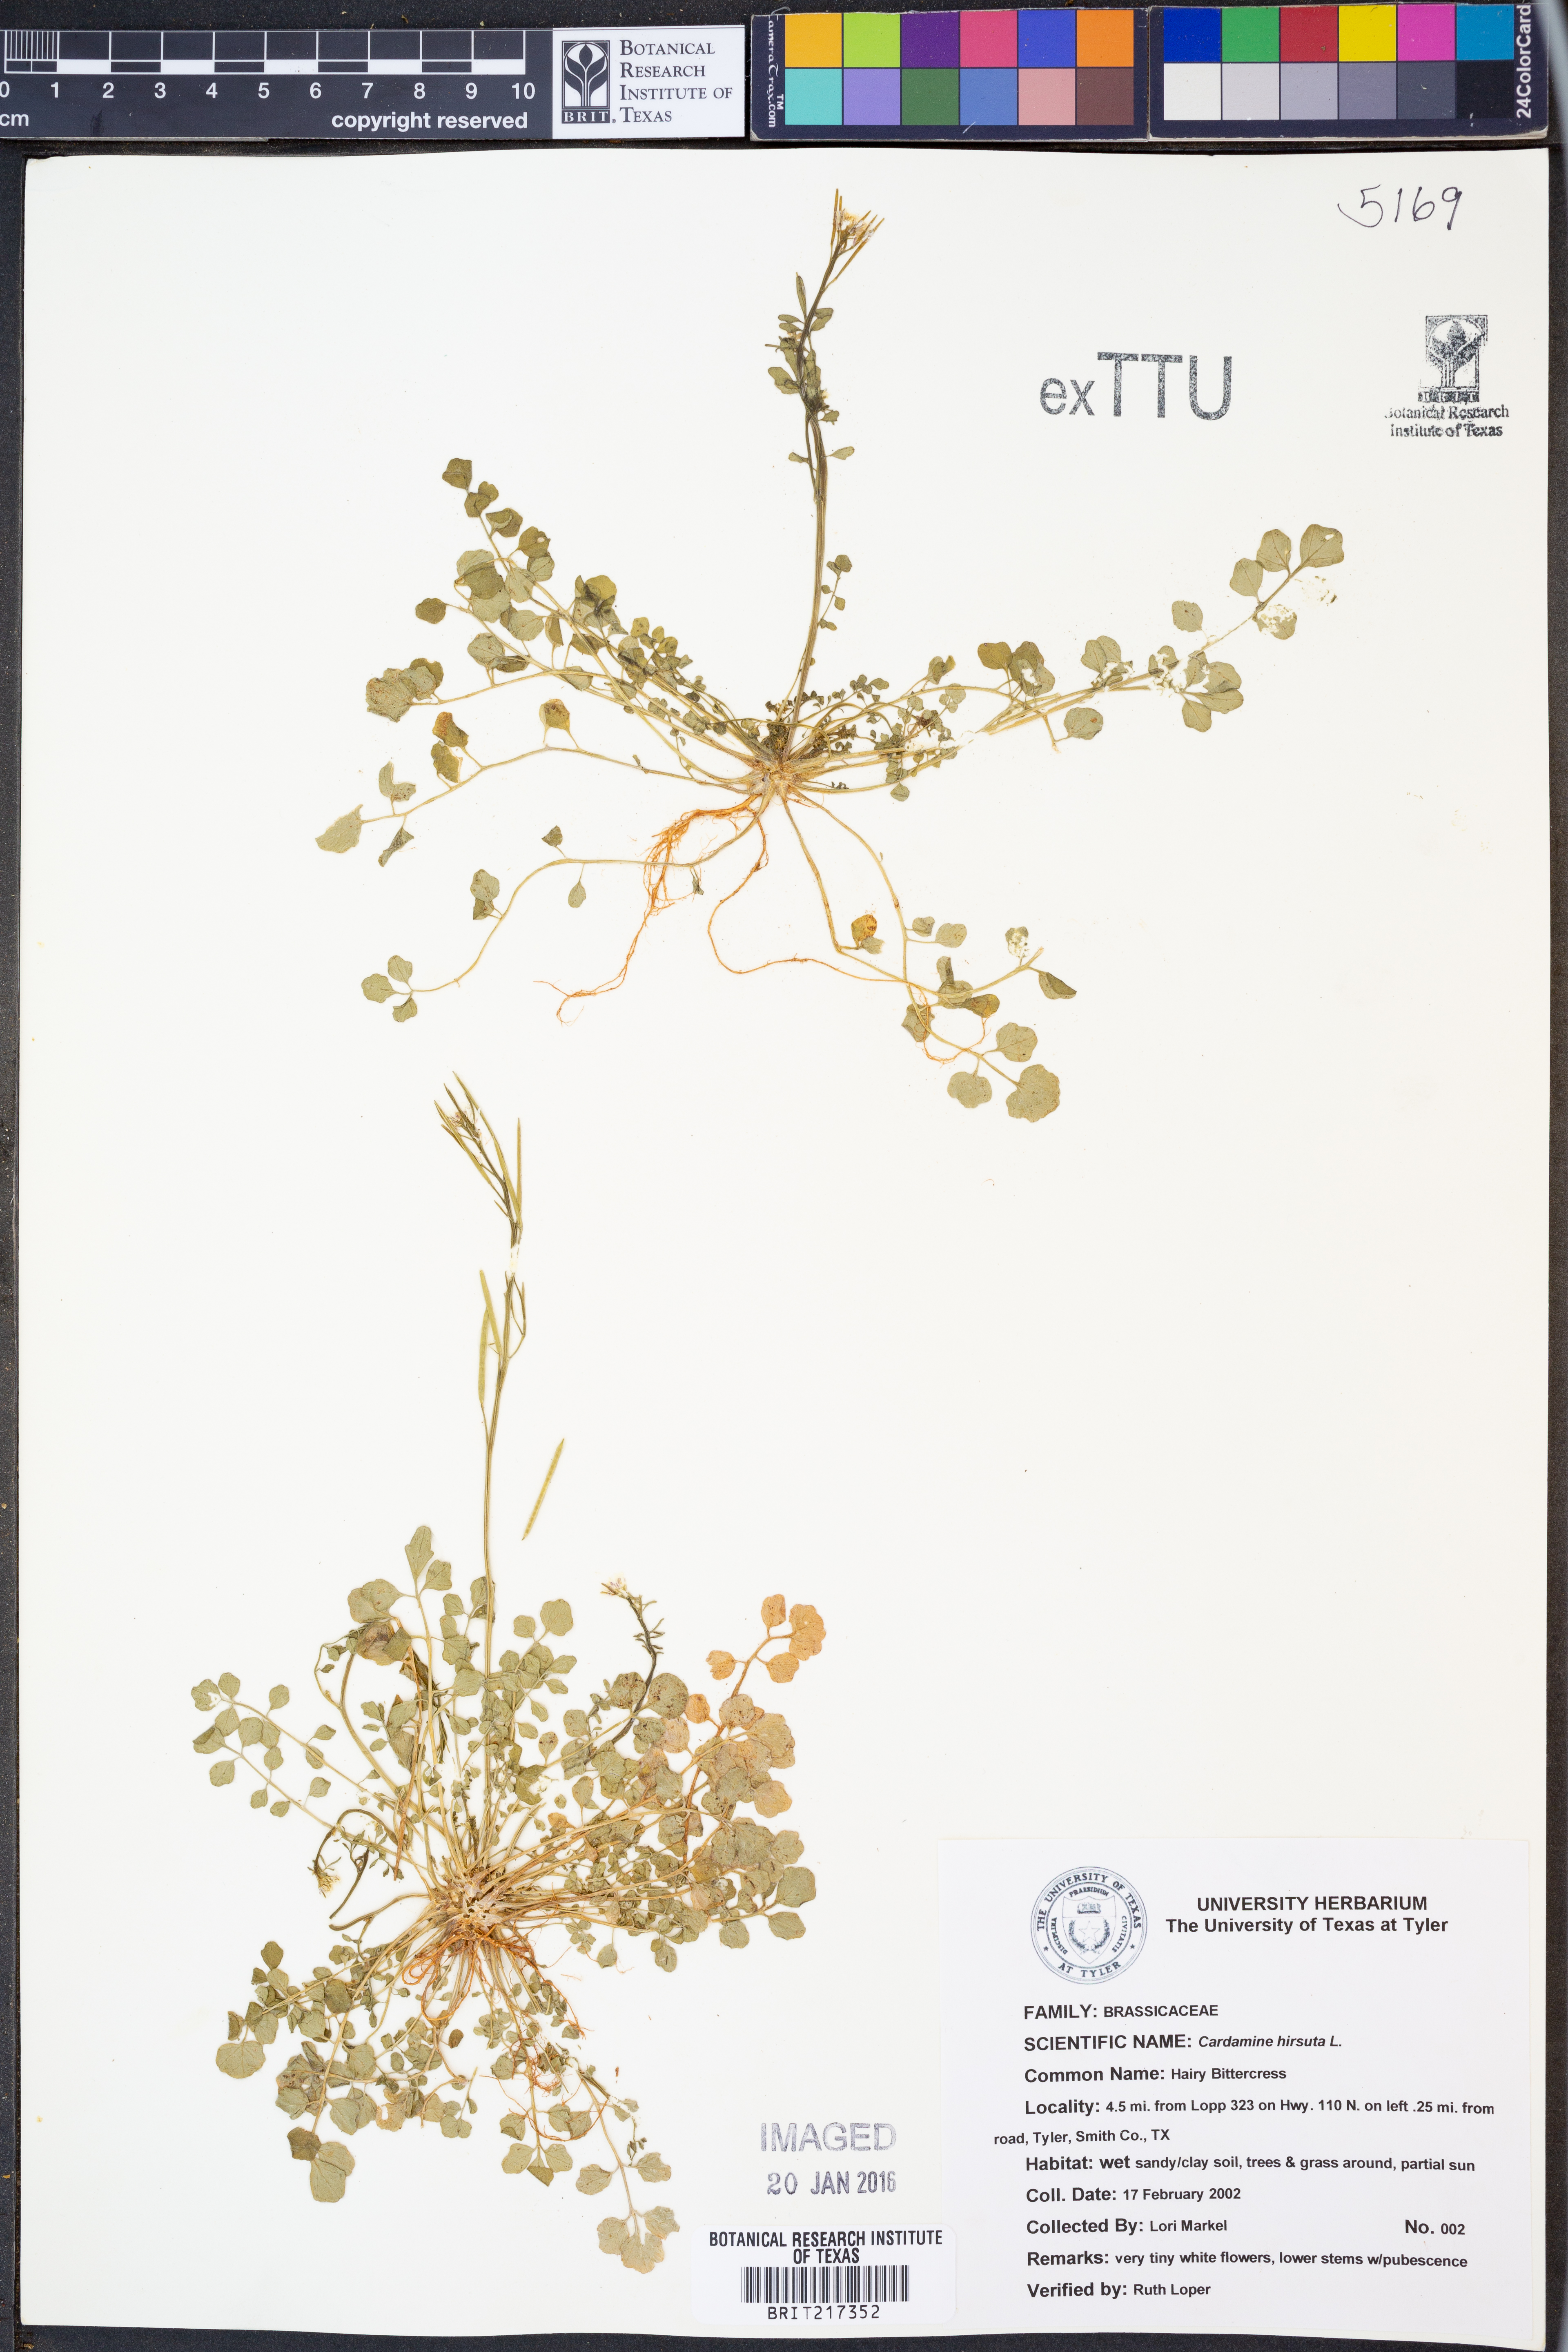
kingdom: Plantae
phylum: Tracheophyta
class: Magnoliopsida
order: Brassicales
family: Brassicaceae
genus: Cardamine
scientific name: Cardamine hirsuta
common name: Hairy bittercress
